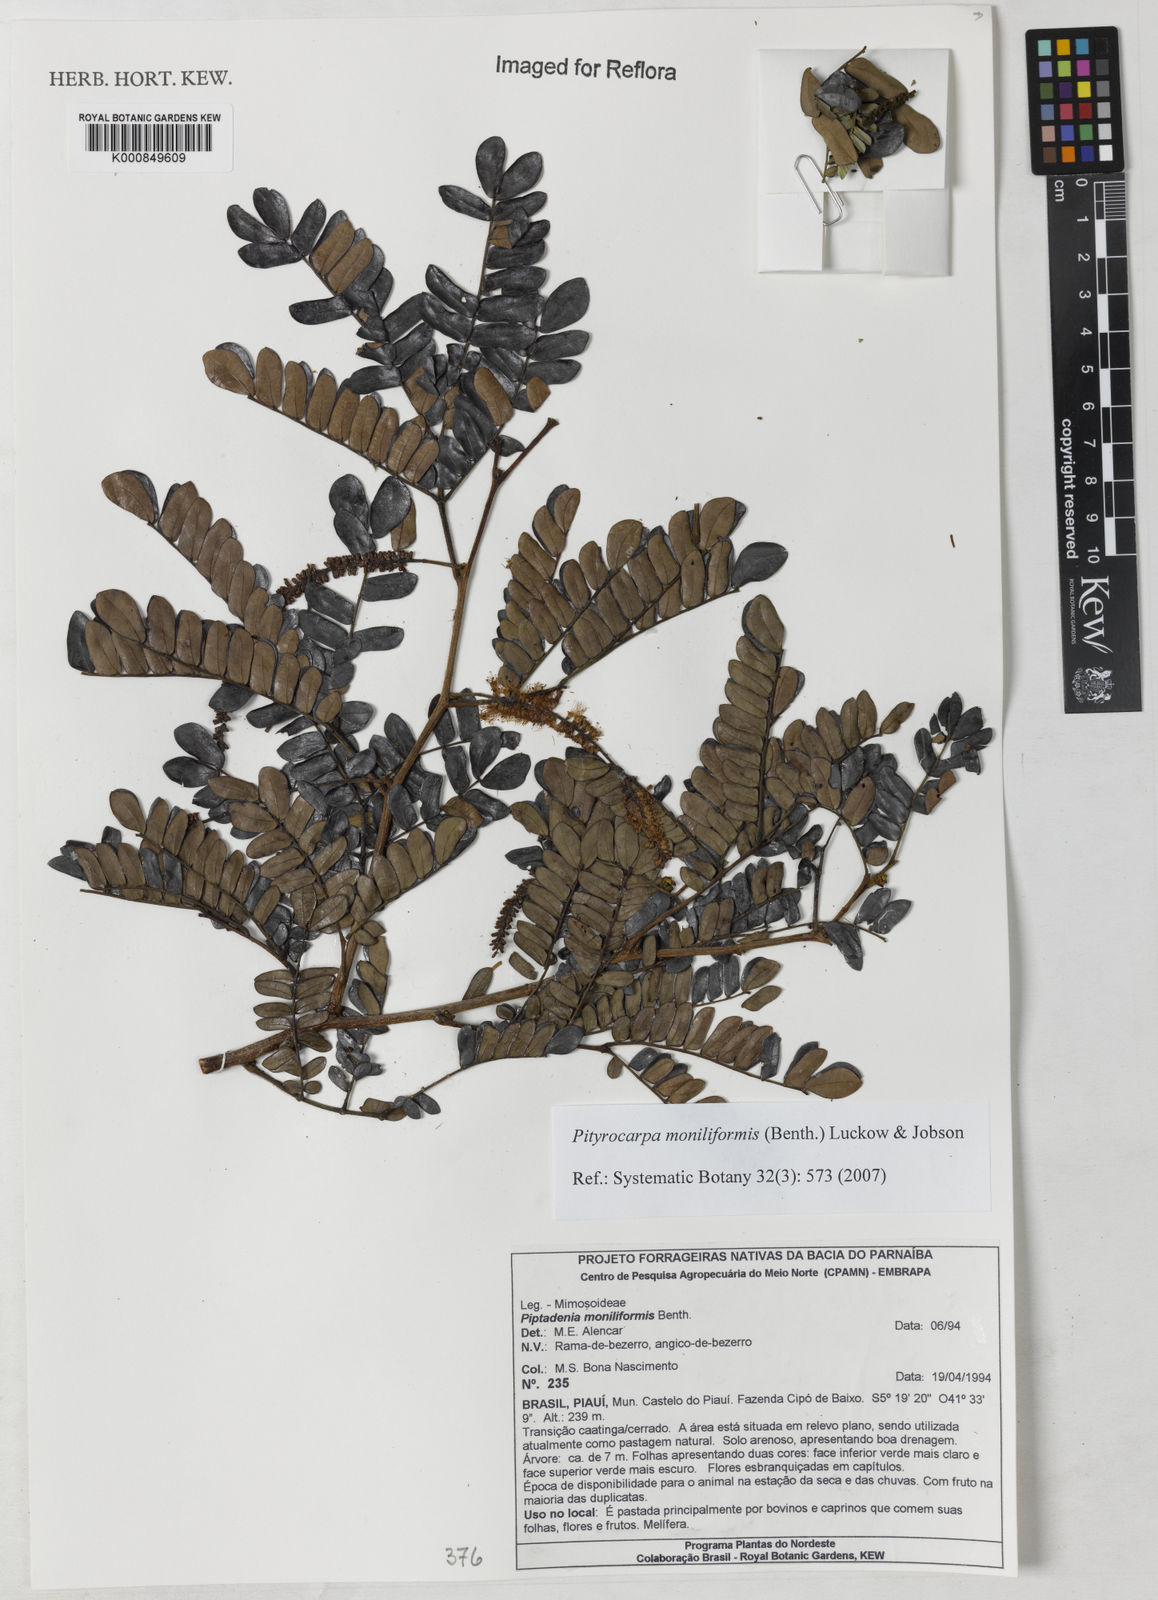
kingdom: Plantae
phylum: Tracheophyta
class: Magnoliopsida
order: Fabales
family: Fabaceae
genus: Pityrocarpa
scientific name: Pityrocarpa moniliformis
